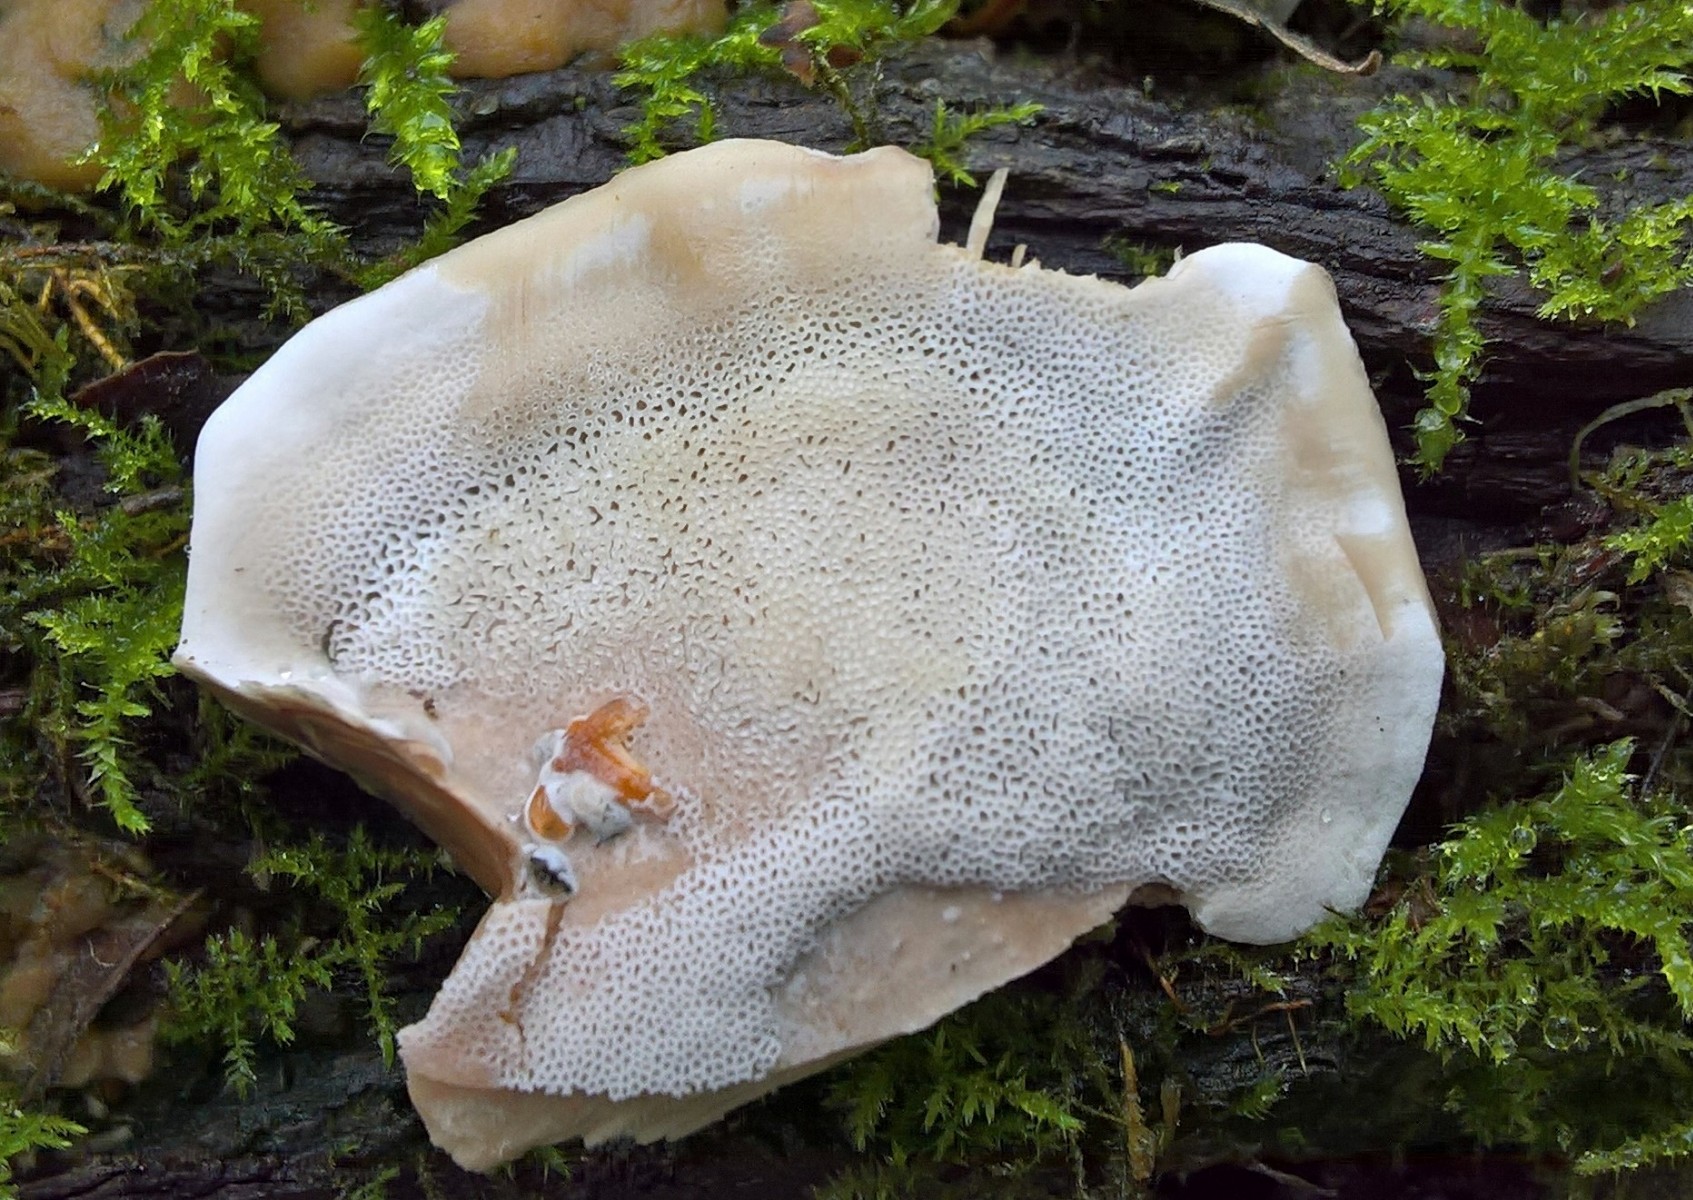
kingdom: Fungi
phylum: Basidiomycota
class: Agaricomycetes
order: Polyporales
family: Phanerochaetaceae
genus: Bjerkandera
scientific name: Bjerkandera adusta
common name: sveden sodporesvamp
